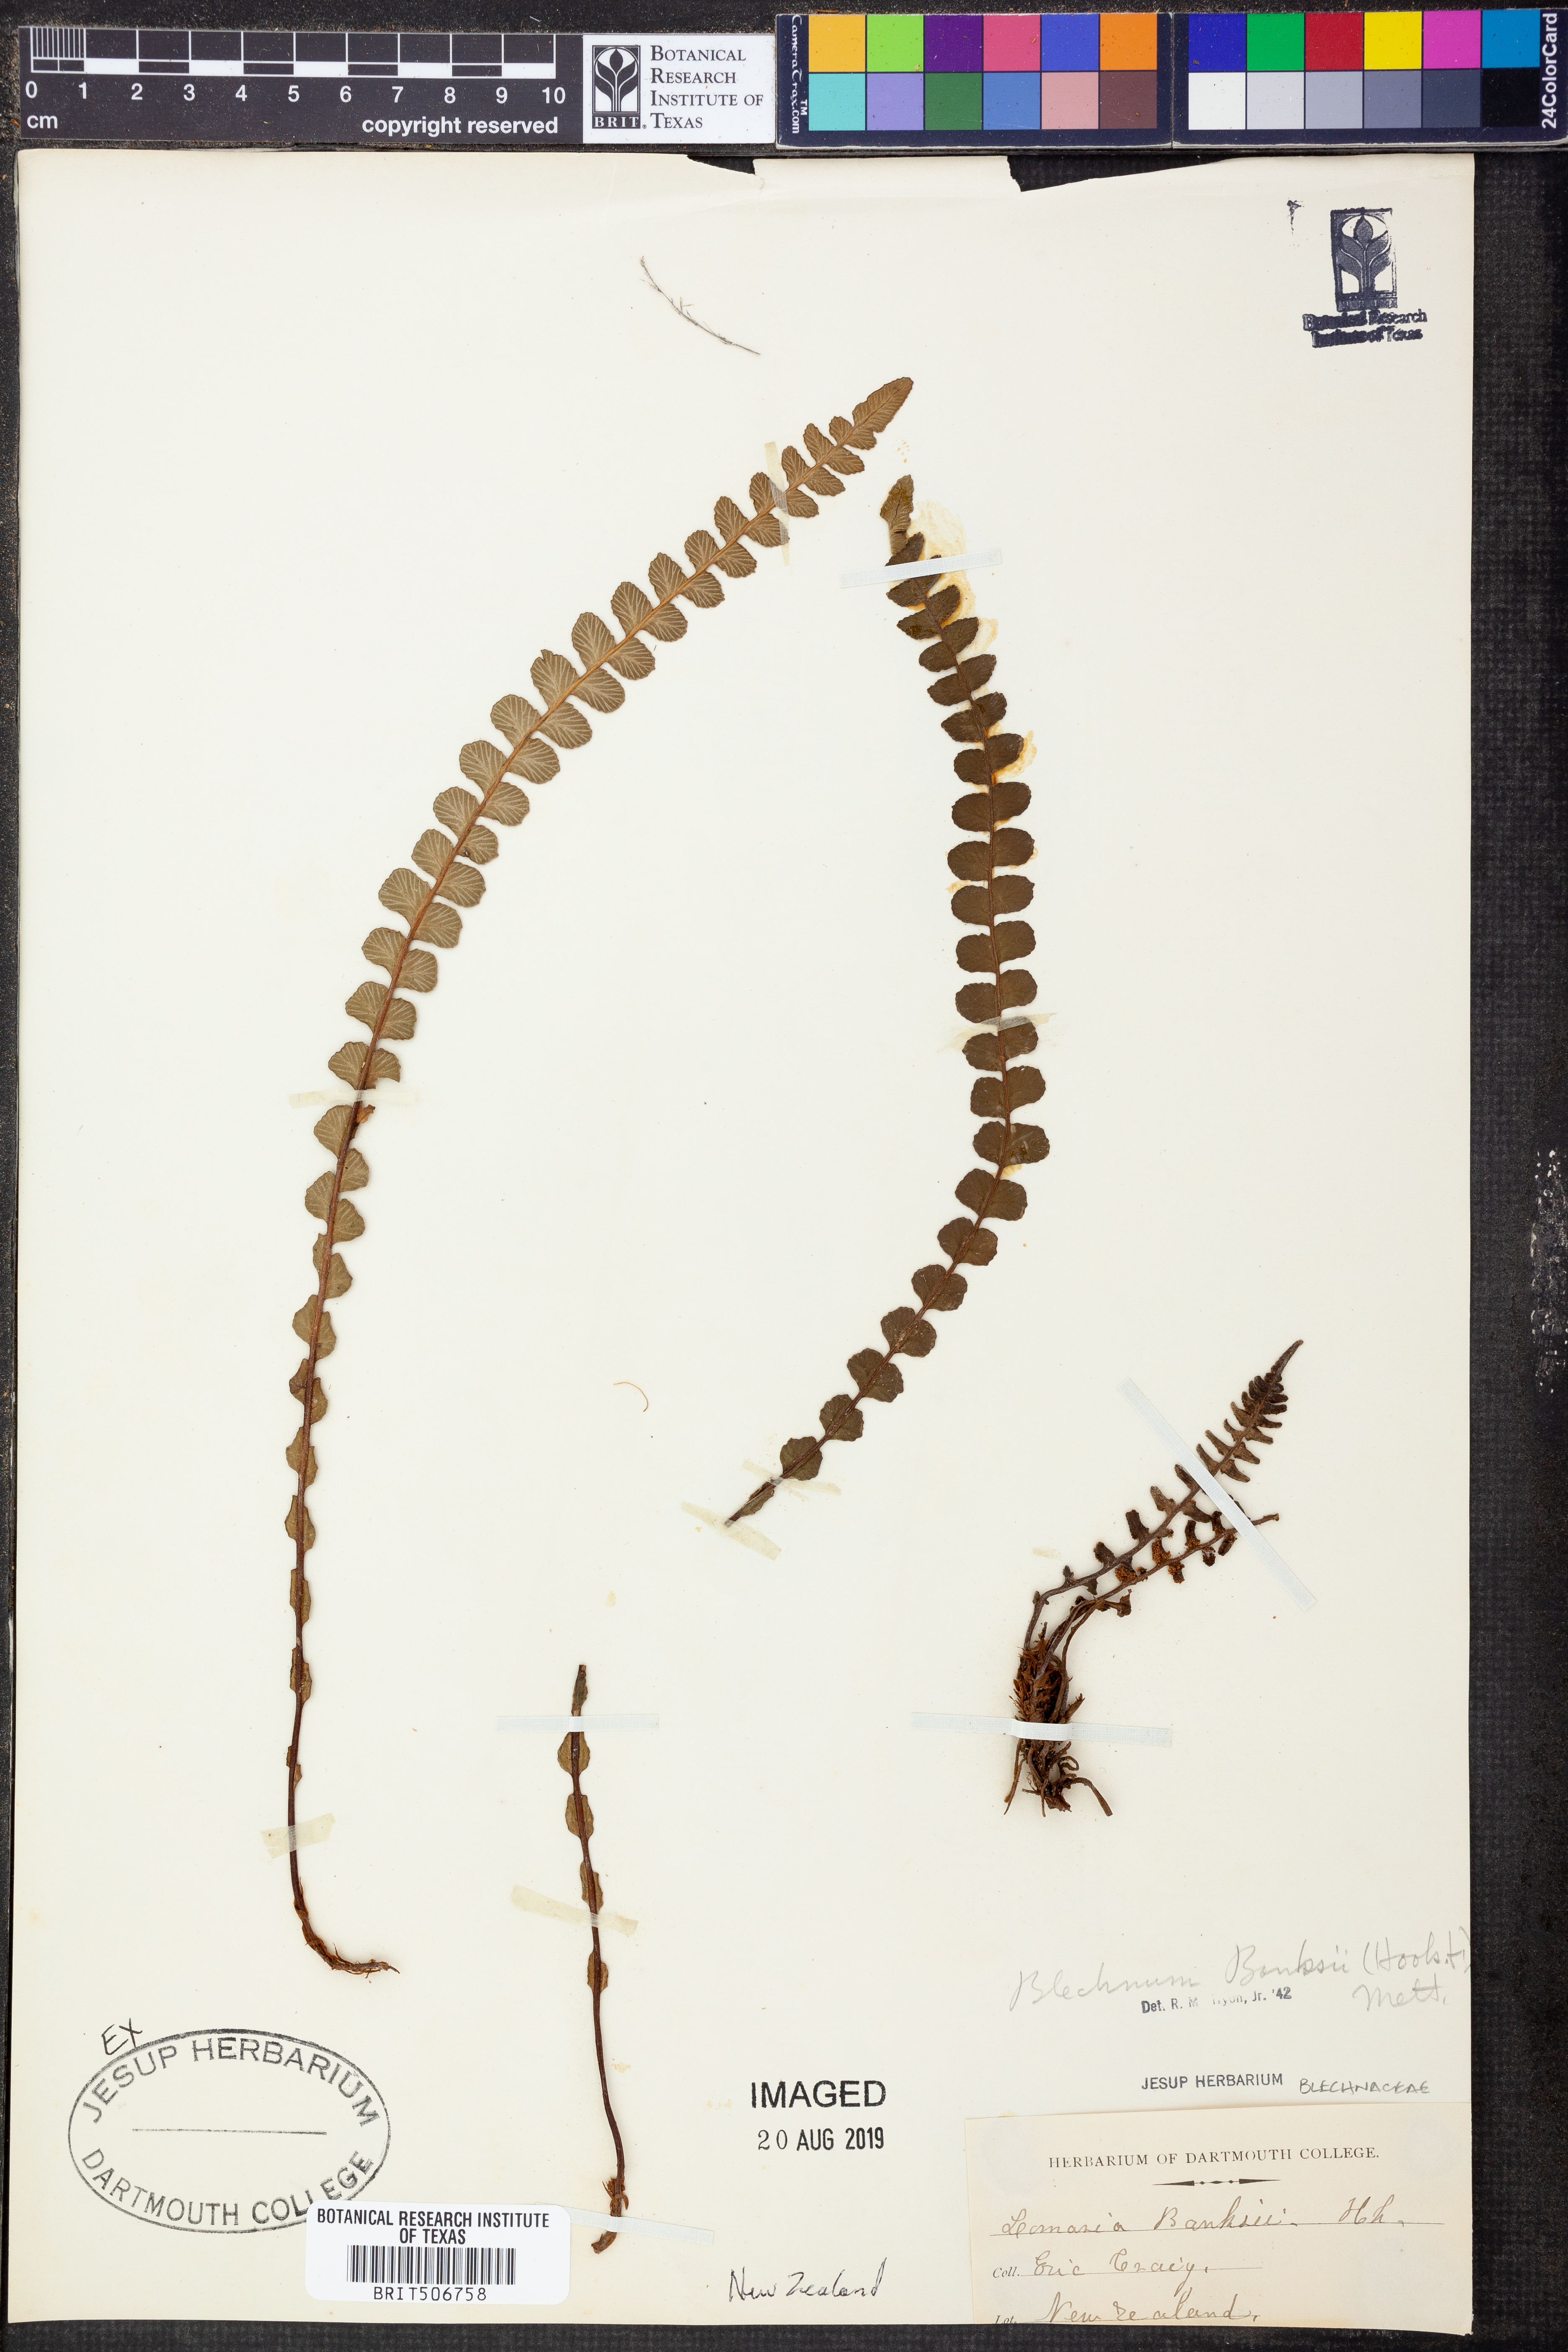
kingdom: Plantae
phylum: Tracheophyta
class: Polypodiopsida
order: Polypodiales
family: Blechnaceae
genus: Austroblechnum
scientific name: Austroblechnum banksii
